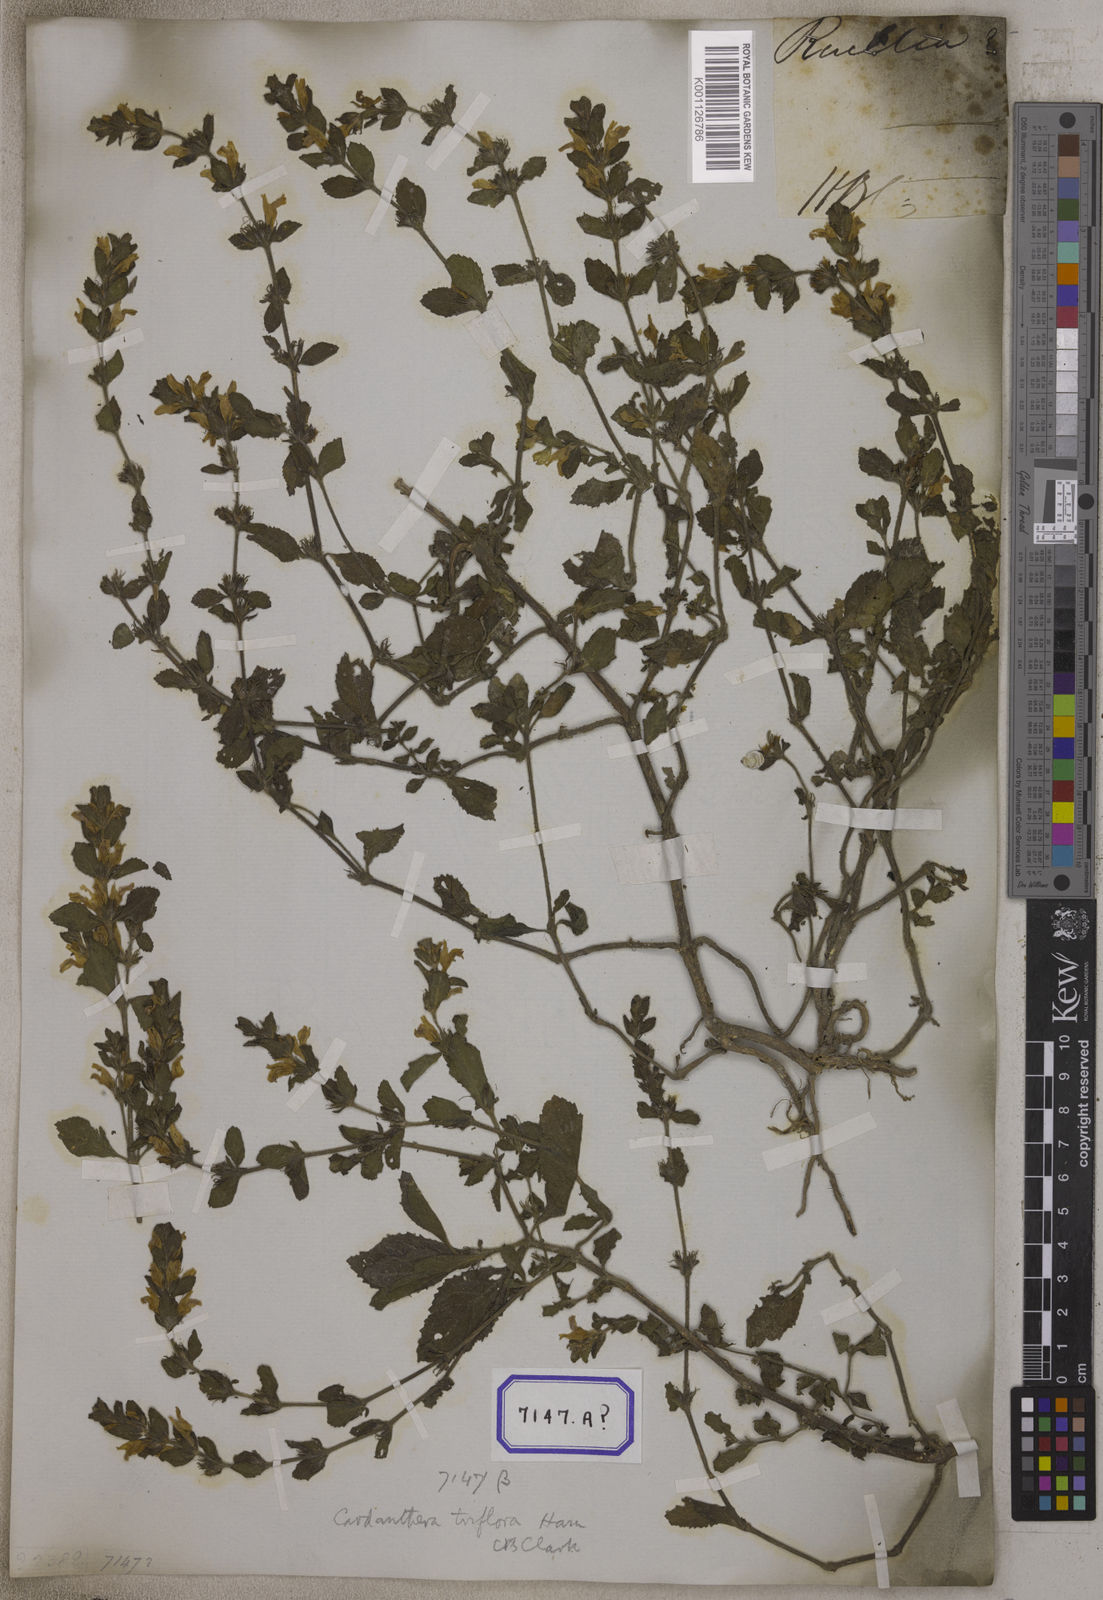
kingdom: Plantae
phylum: Tracheophyta
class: Magnoliopsida
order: Lamiales
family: Plantaginaceae
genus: Adenosma
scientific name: Adenosma
